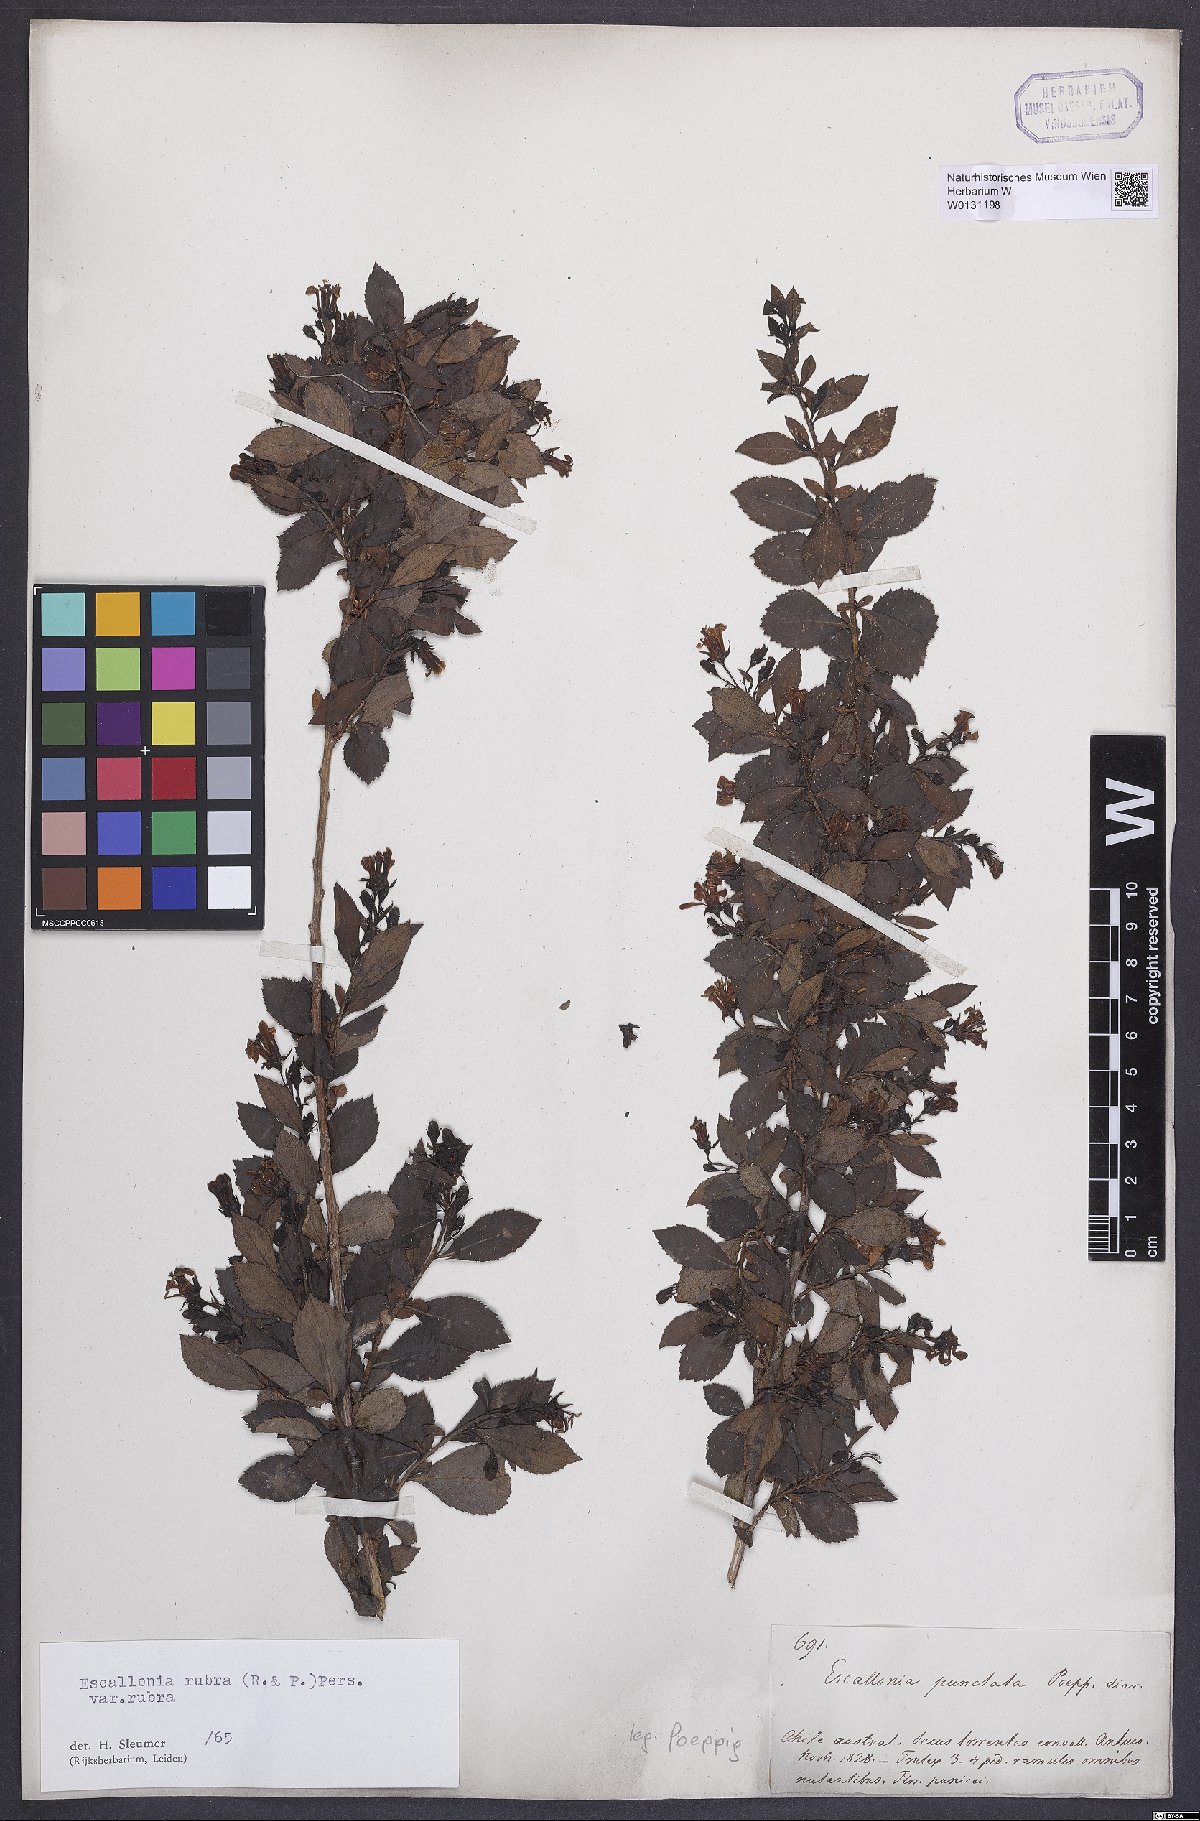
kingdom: Plantae
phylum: Tracheophyta
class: Magnoliopsida
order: Escalloniales
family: Escalloniaceae
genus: Escallonia
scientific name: Escallonia rubra
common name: Redclaws
